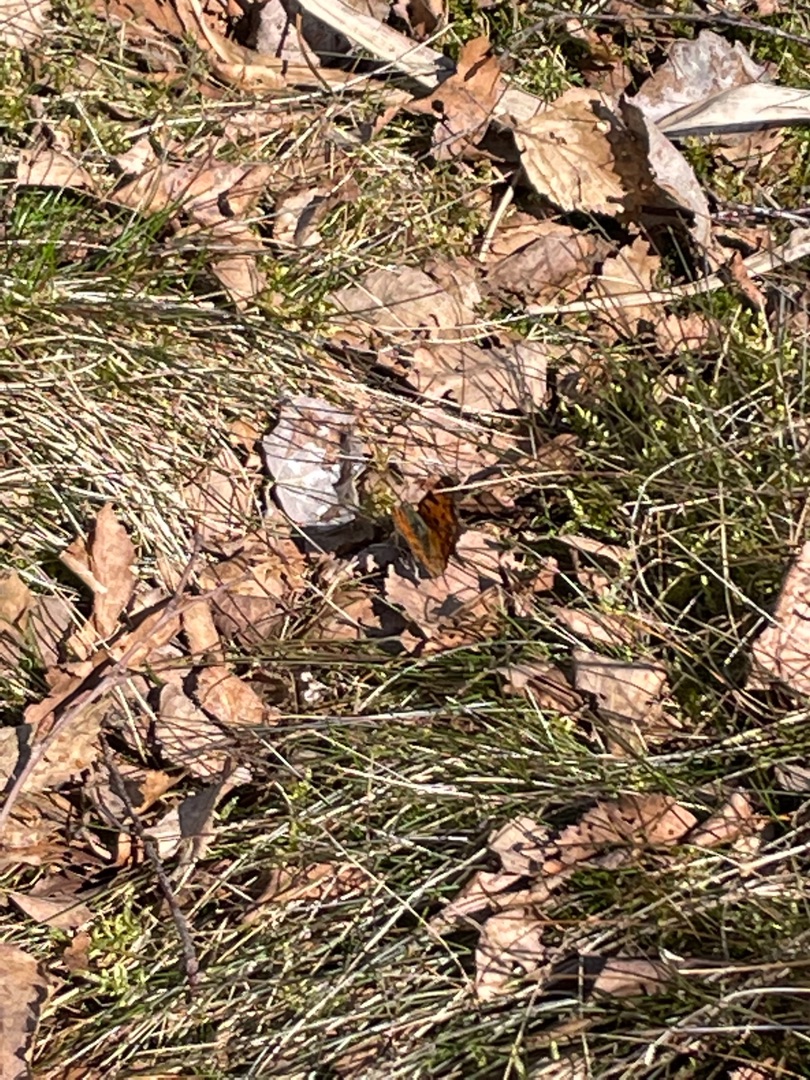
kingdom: Animalia
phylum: Arthropoda
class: Insecta
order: Lepidoptera
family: Nymphalidae
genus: Polygonia
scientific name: Polygonia c-album
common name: Det hvide C
